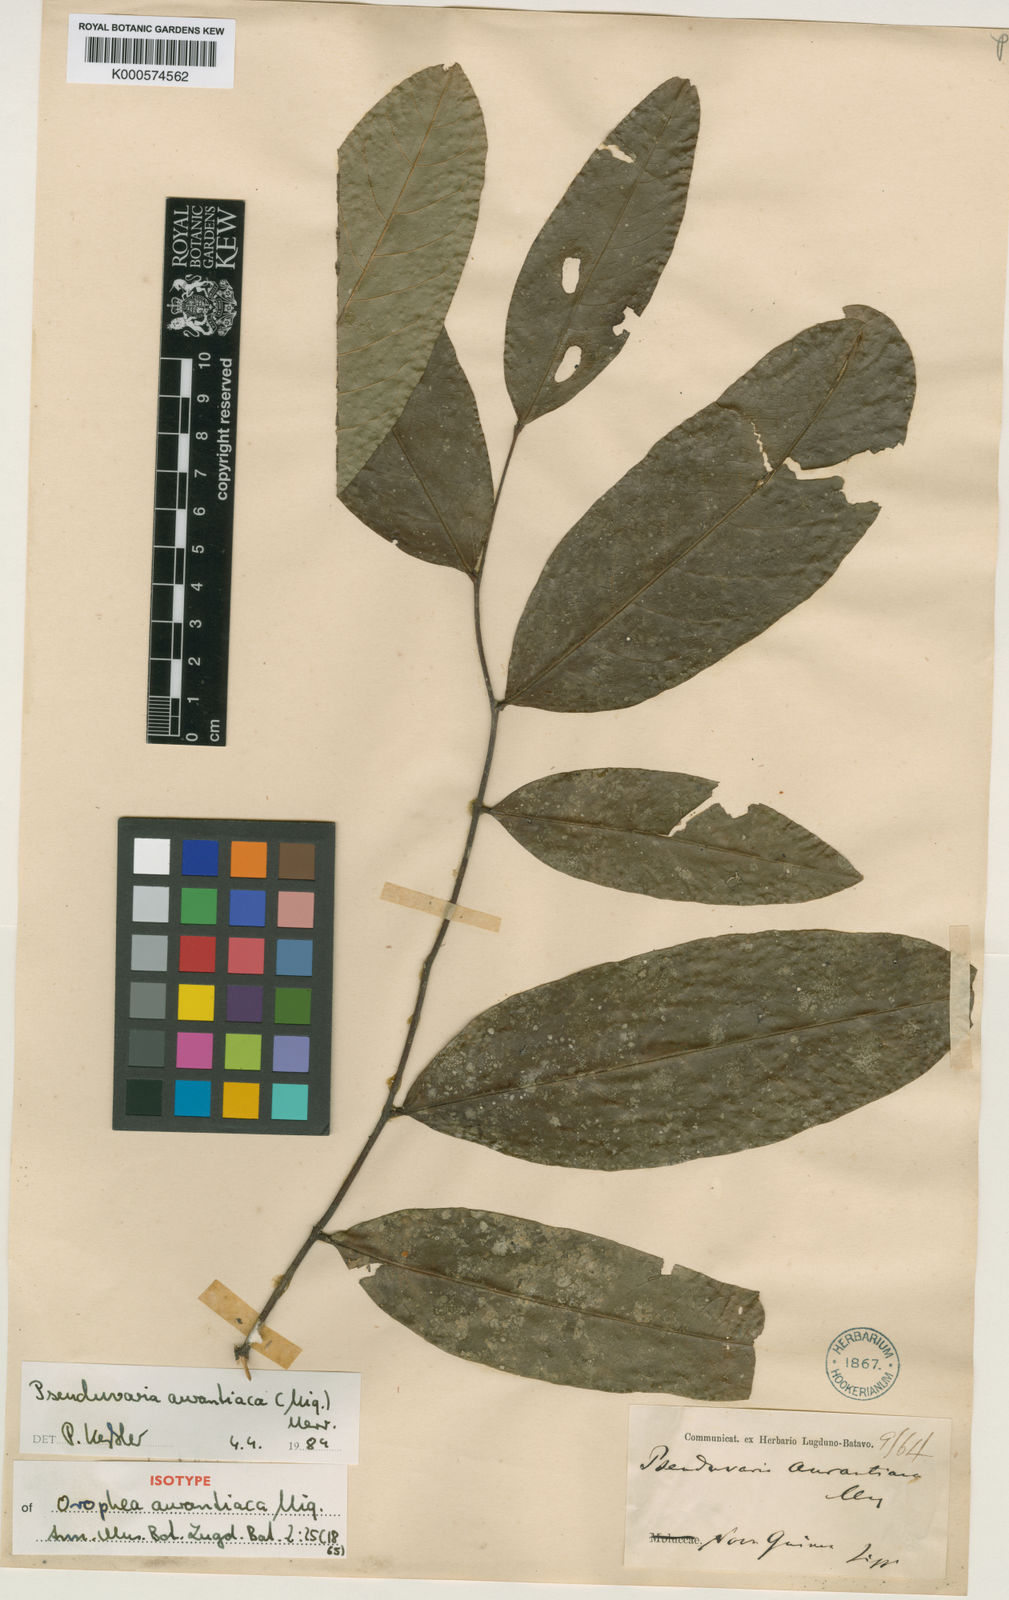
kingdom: Plantae
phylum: Tracheophyta
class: Magnoliopsida
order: Magnoliales
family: Annonaceae
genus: Pseuduvaria
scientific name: Pseuduvaria aurantiaca
